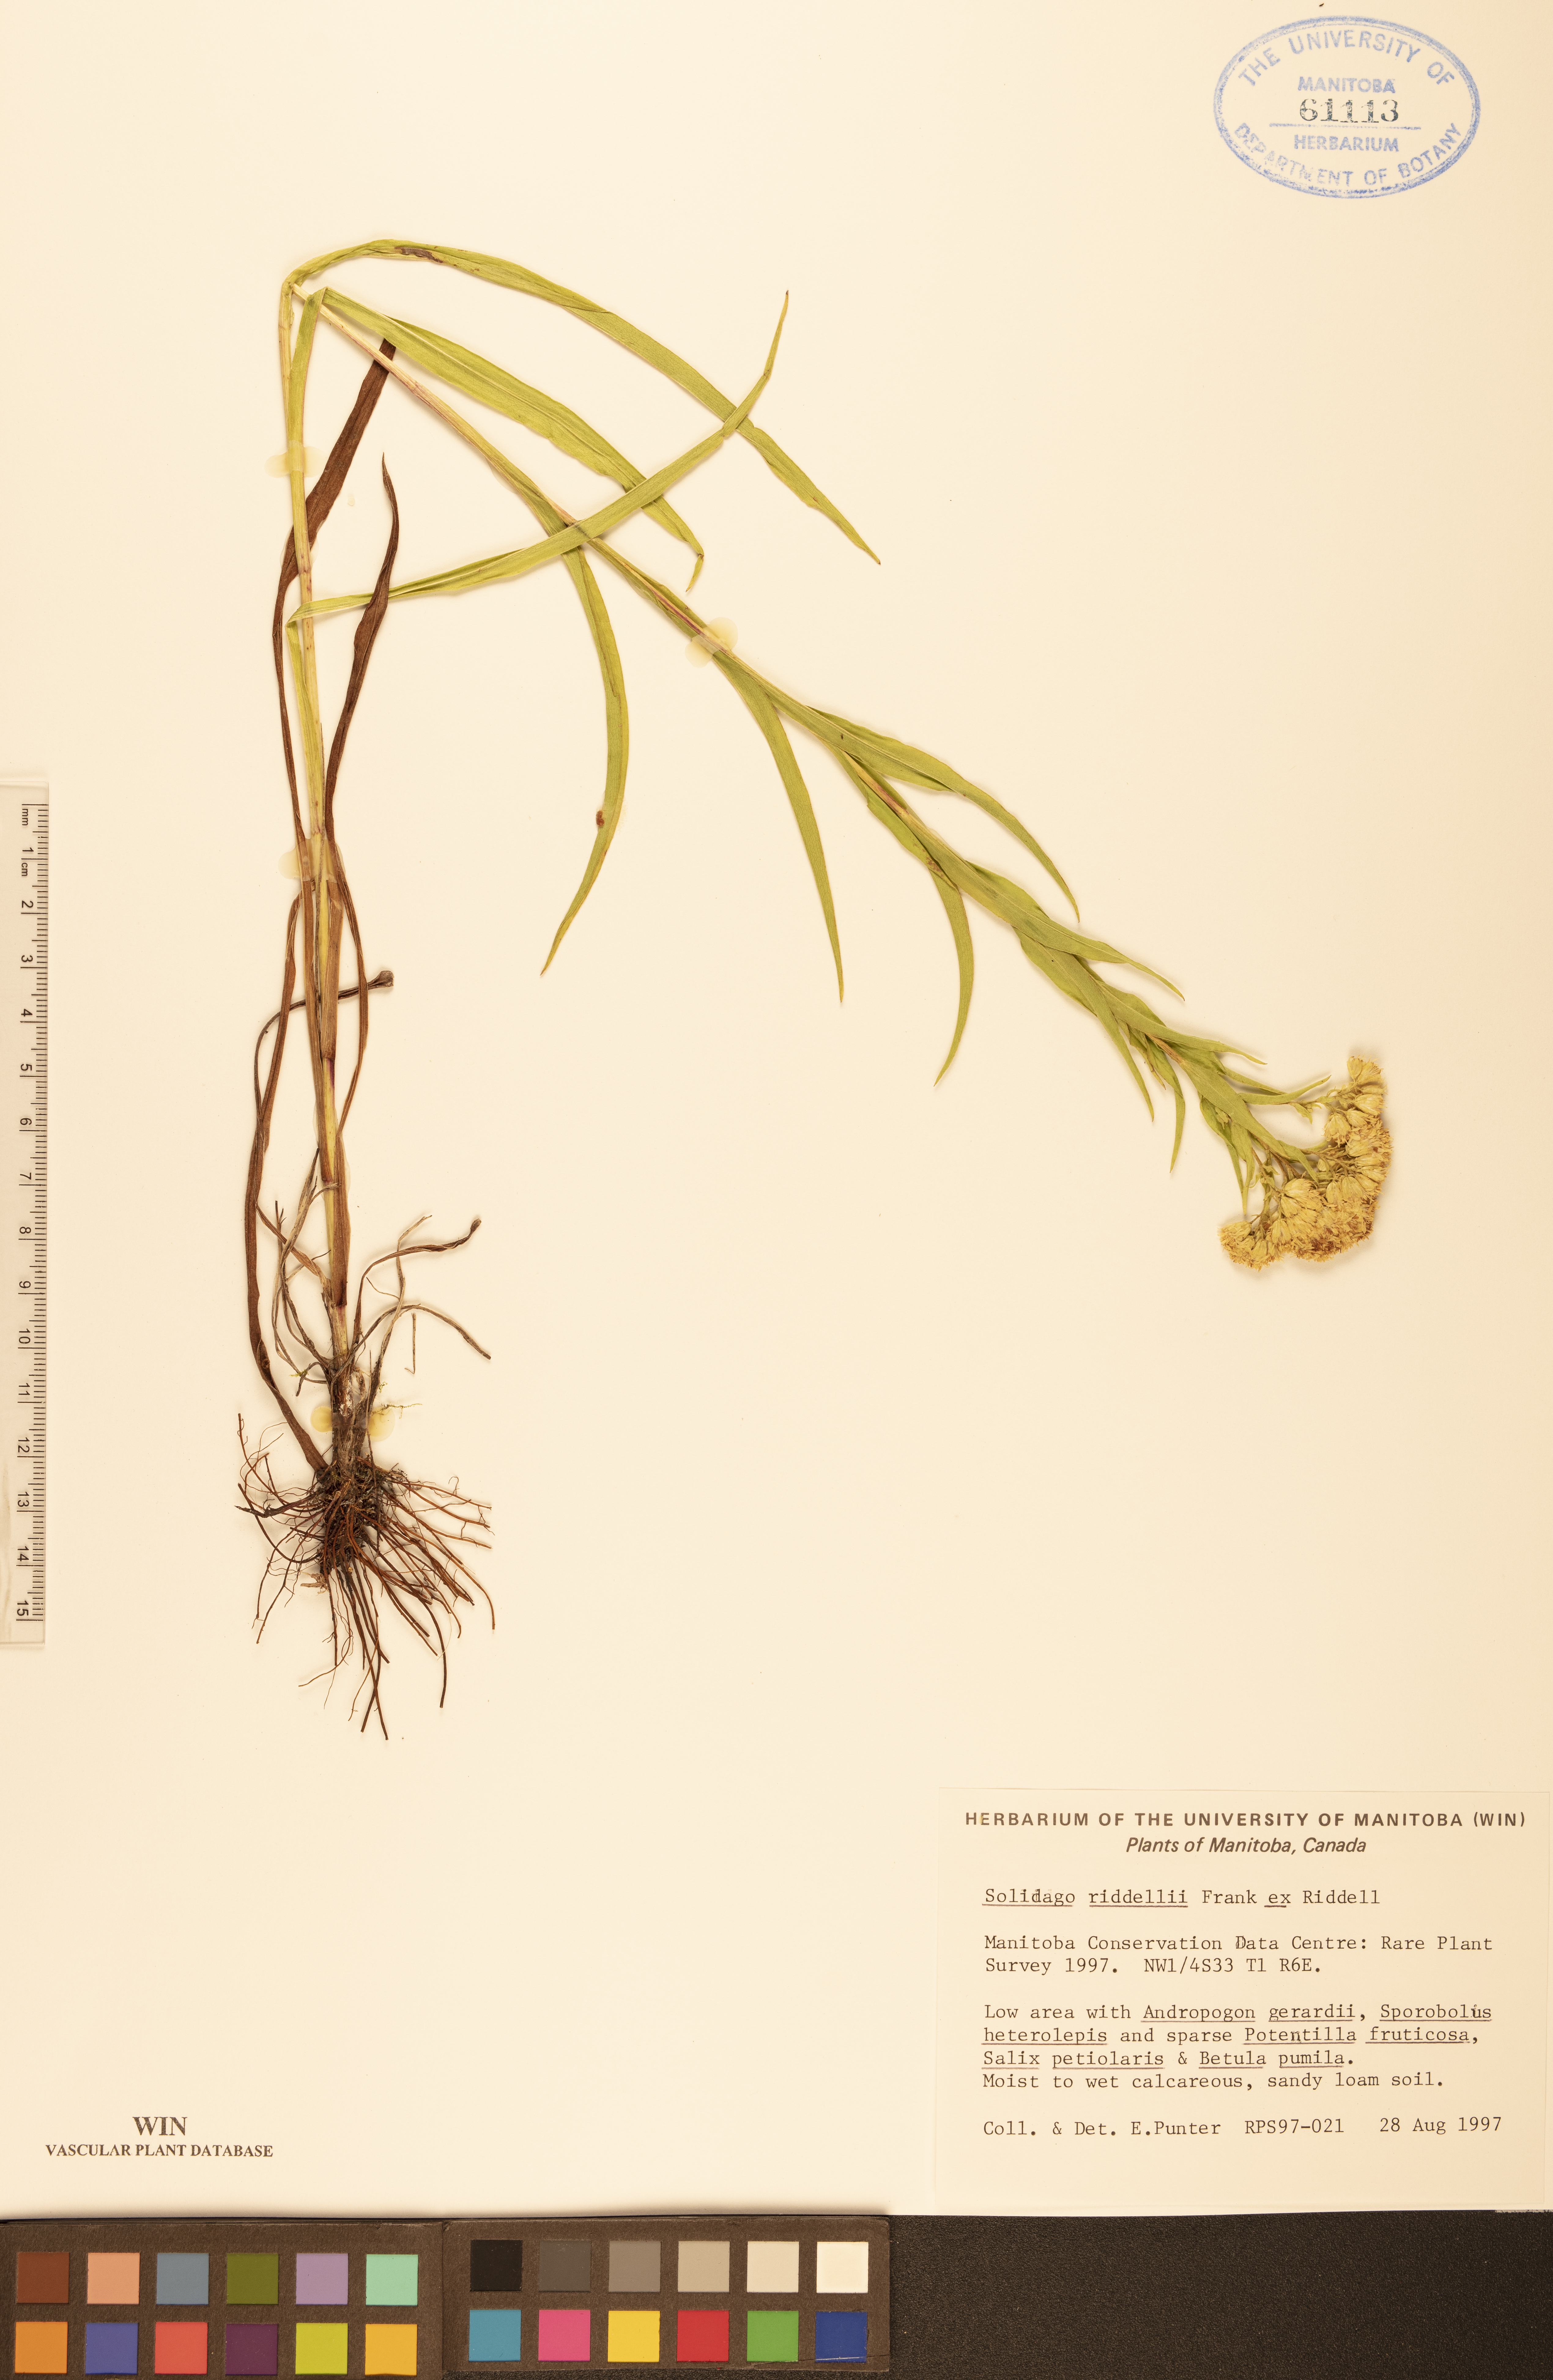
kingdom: Plantae
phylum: Tracheophyta
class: Magnoliopsida
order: Asterales
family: Asteraceae
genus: Solidago
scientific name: Solidago riddellii
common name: Riddell's goldenrod
